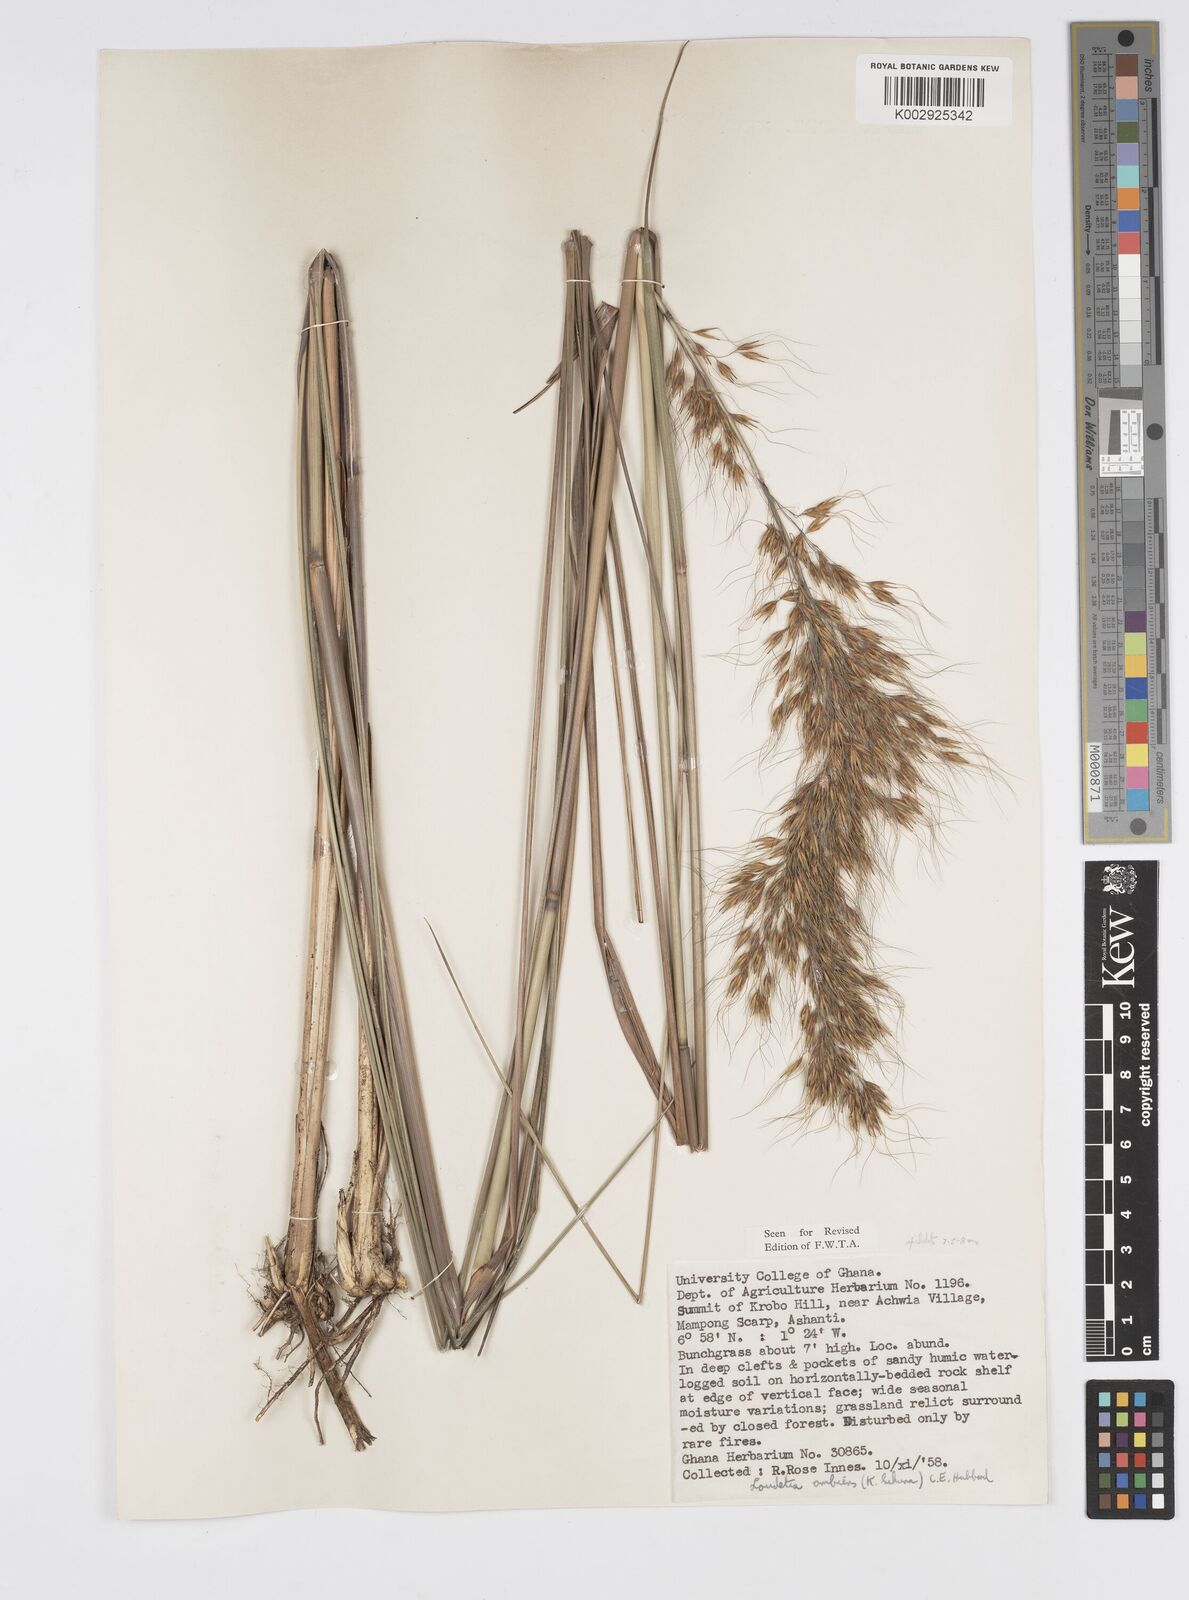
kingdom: Plantae
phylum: Tracheophyta
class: Liliopsida
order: Poales
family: Poaceae
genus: Loudetiopsis
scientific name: Loudetiopsis ambiens
